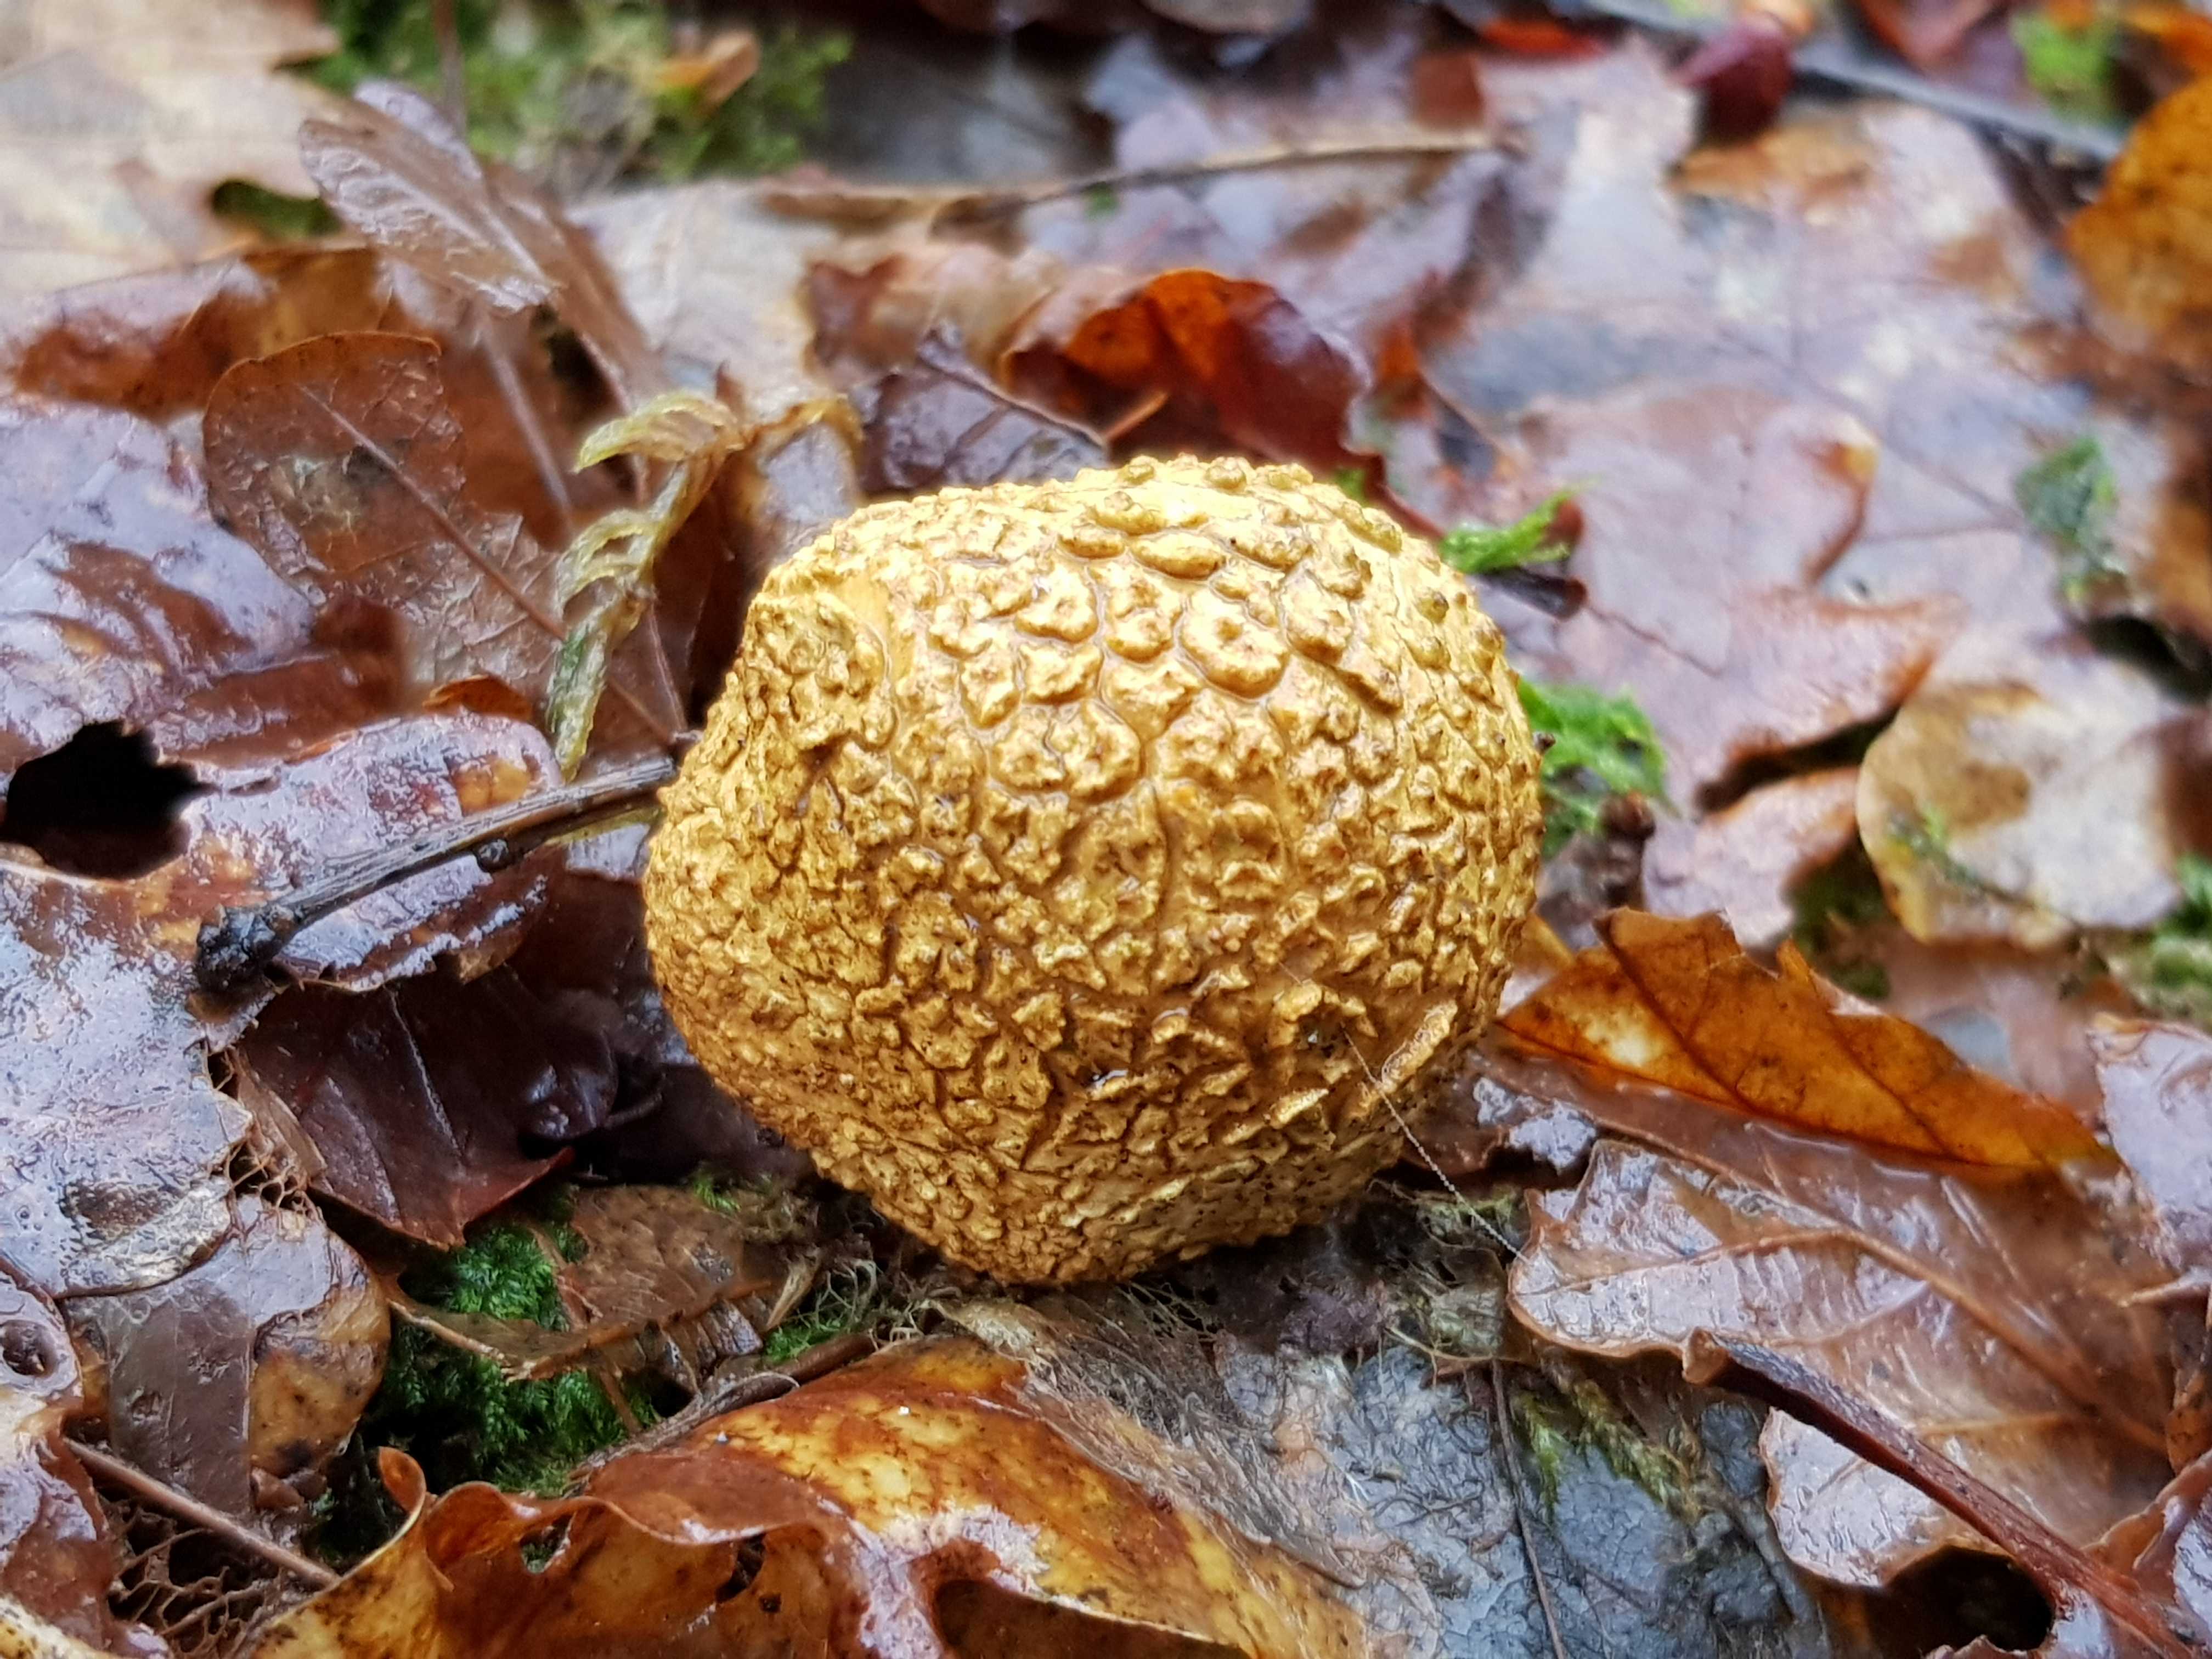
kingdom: Fungi
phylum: Basidiomycota
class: Agaricomycetes
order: Boletales
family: Sclerodermataceae
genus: Scleroderma
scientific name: Scleroderma citrinum
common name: almindelig bruskbold
